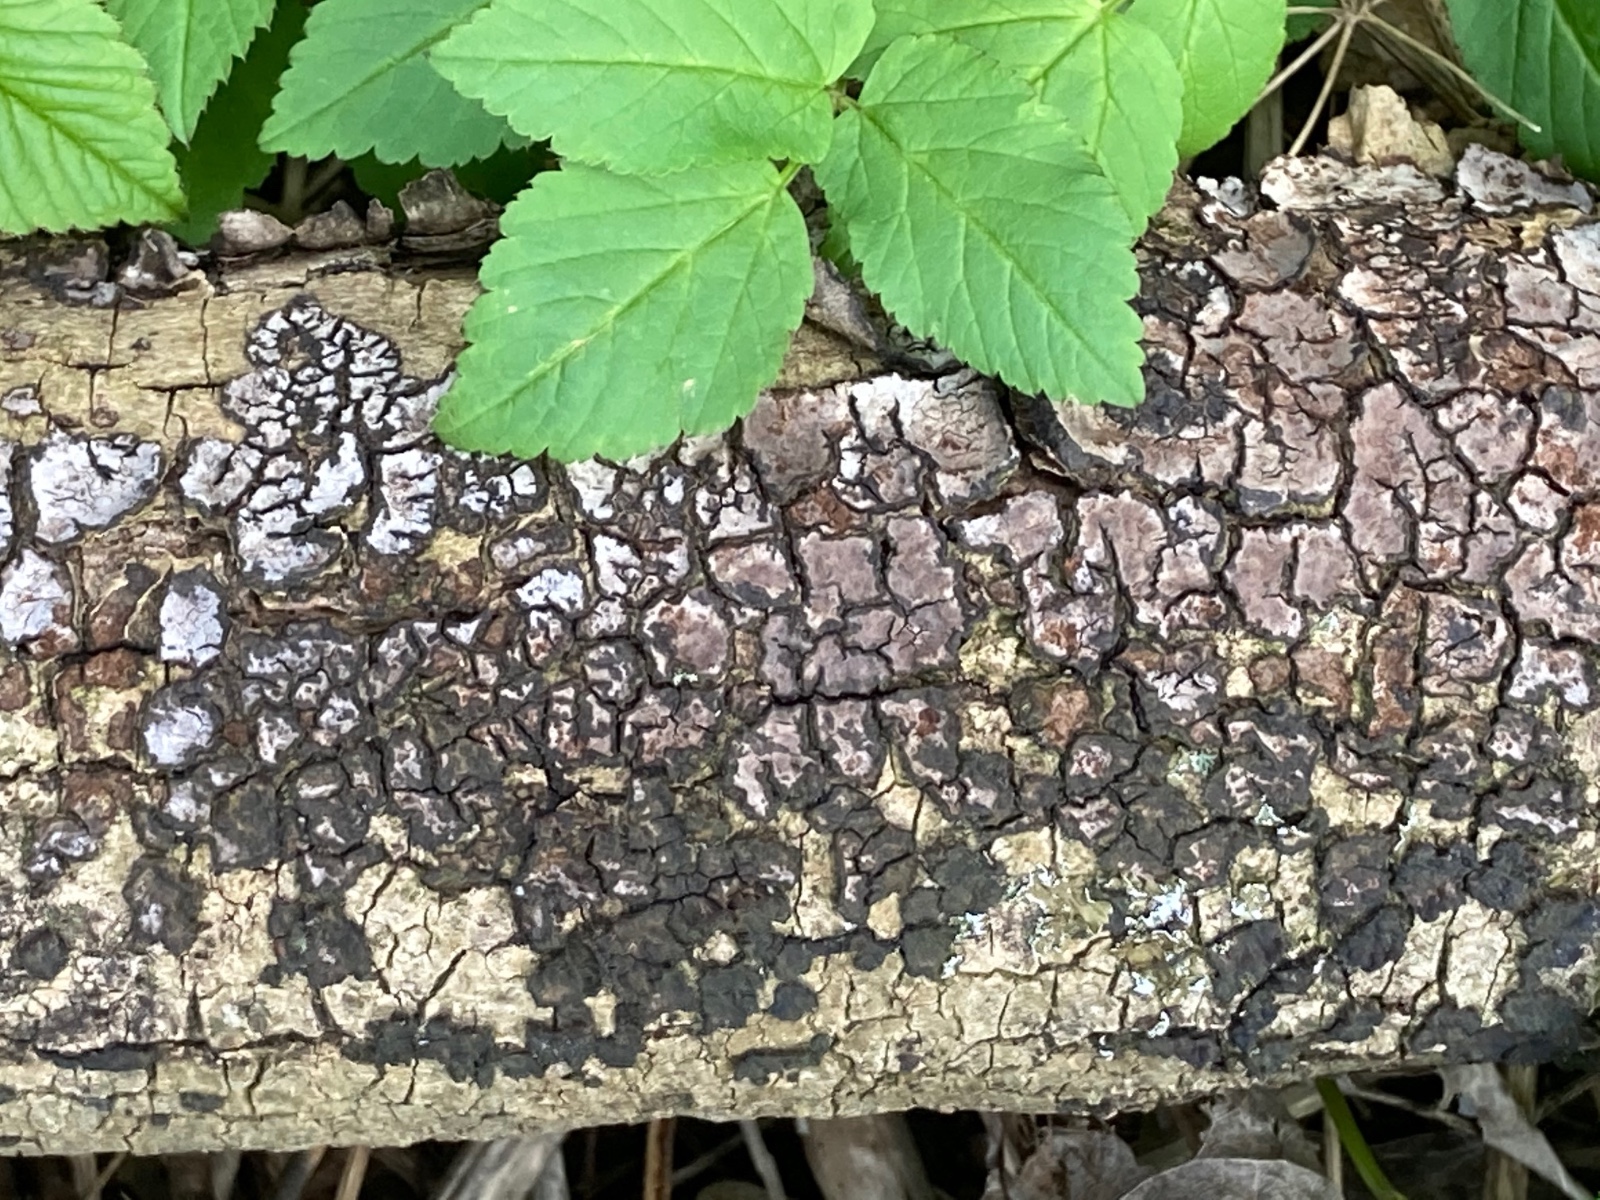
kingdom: Fungi
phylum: Basidiomycota
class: Agaricomycetes
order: Russulales
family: Peniophoraceae
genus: Peniophora
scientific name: Peniophora limitata
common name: mørkrandet voksskind
